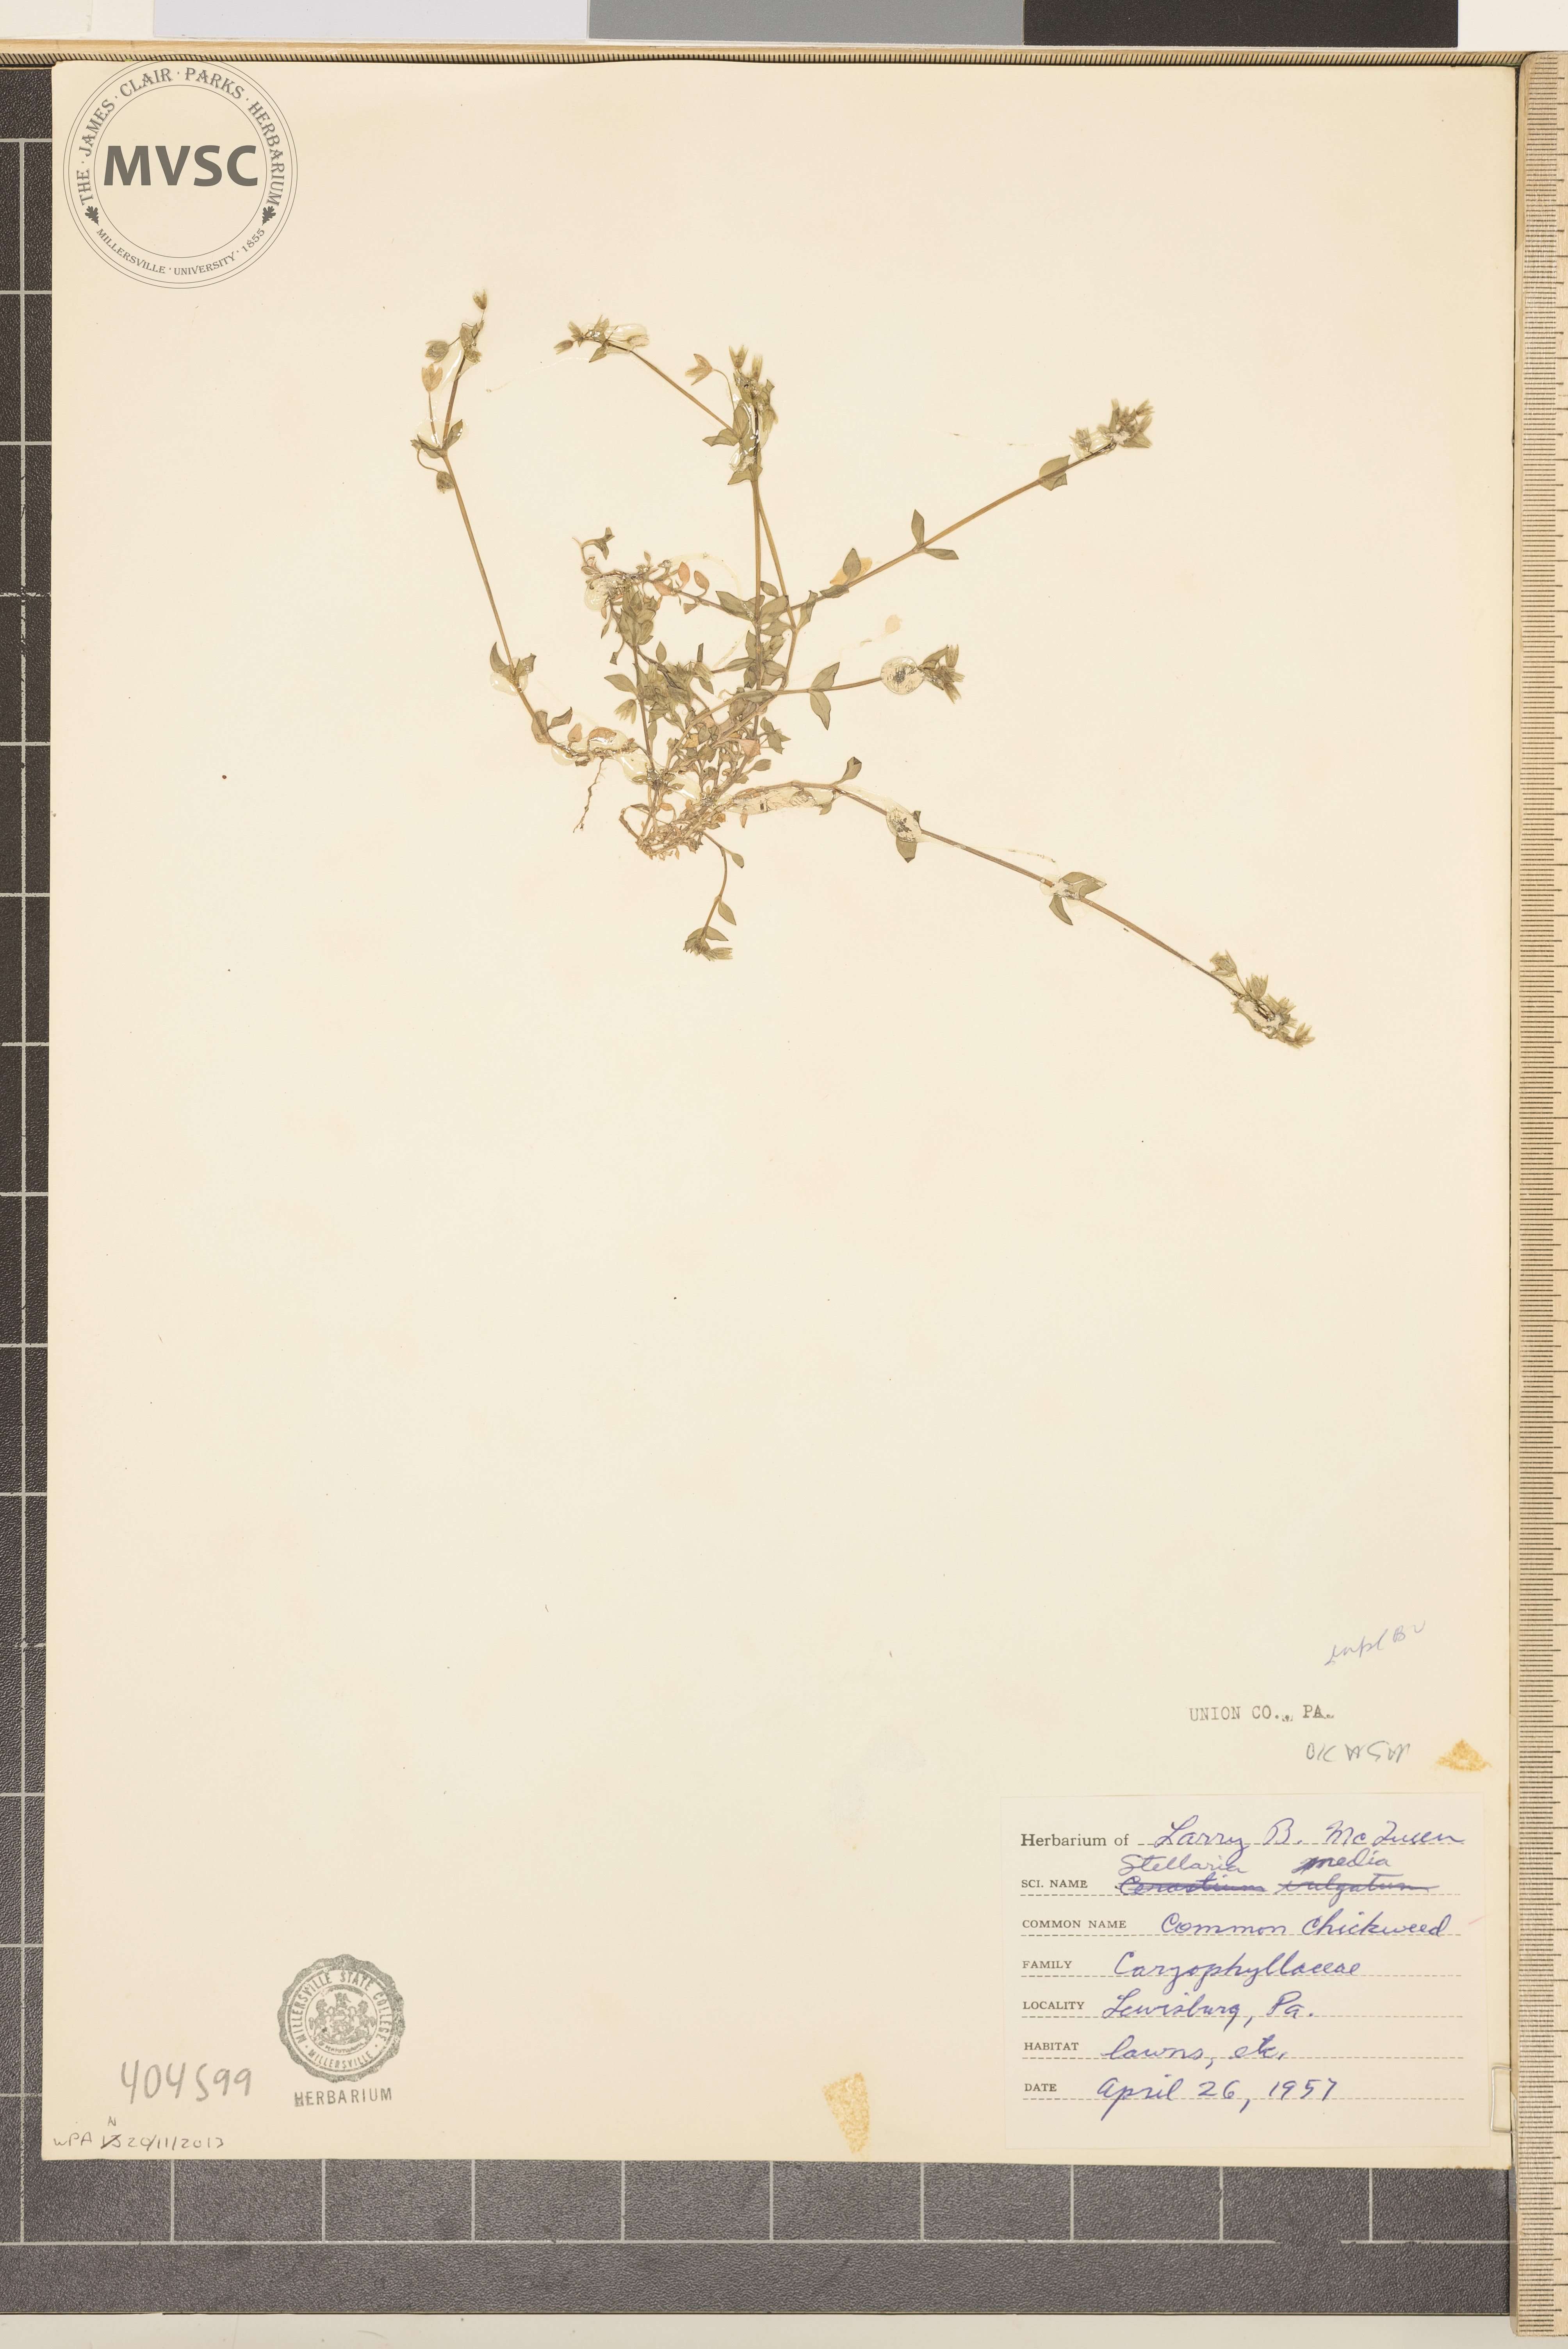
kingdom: Plantae
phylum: Tracheophyta
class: Magnoliopsida
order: Caryophyllales
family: Caryophyllaceae
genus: Stellaria
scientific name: Stellaria media
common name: Common Chickweed
